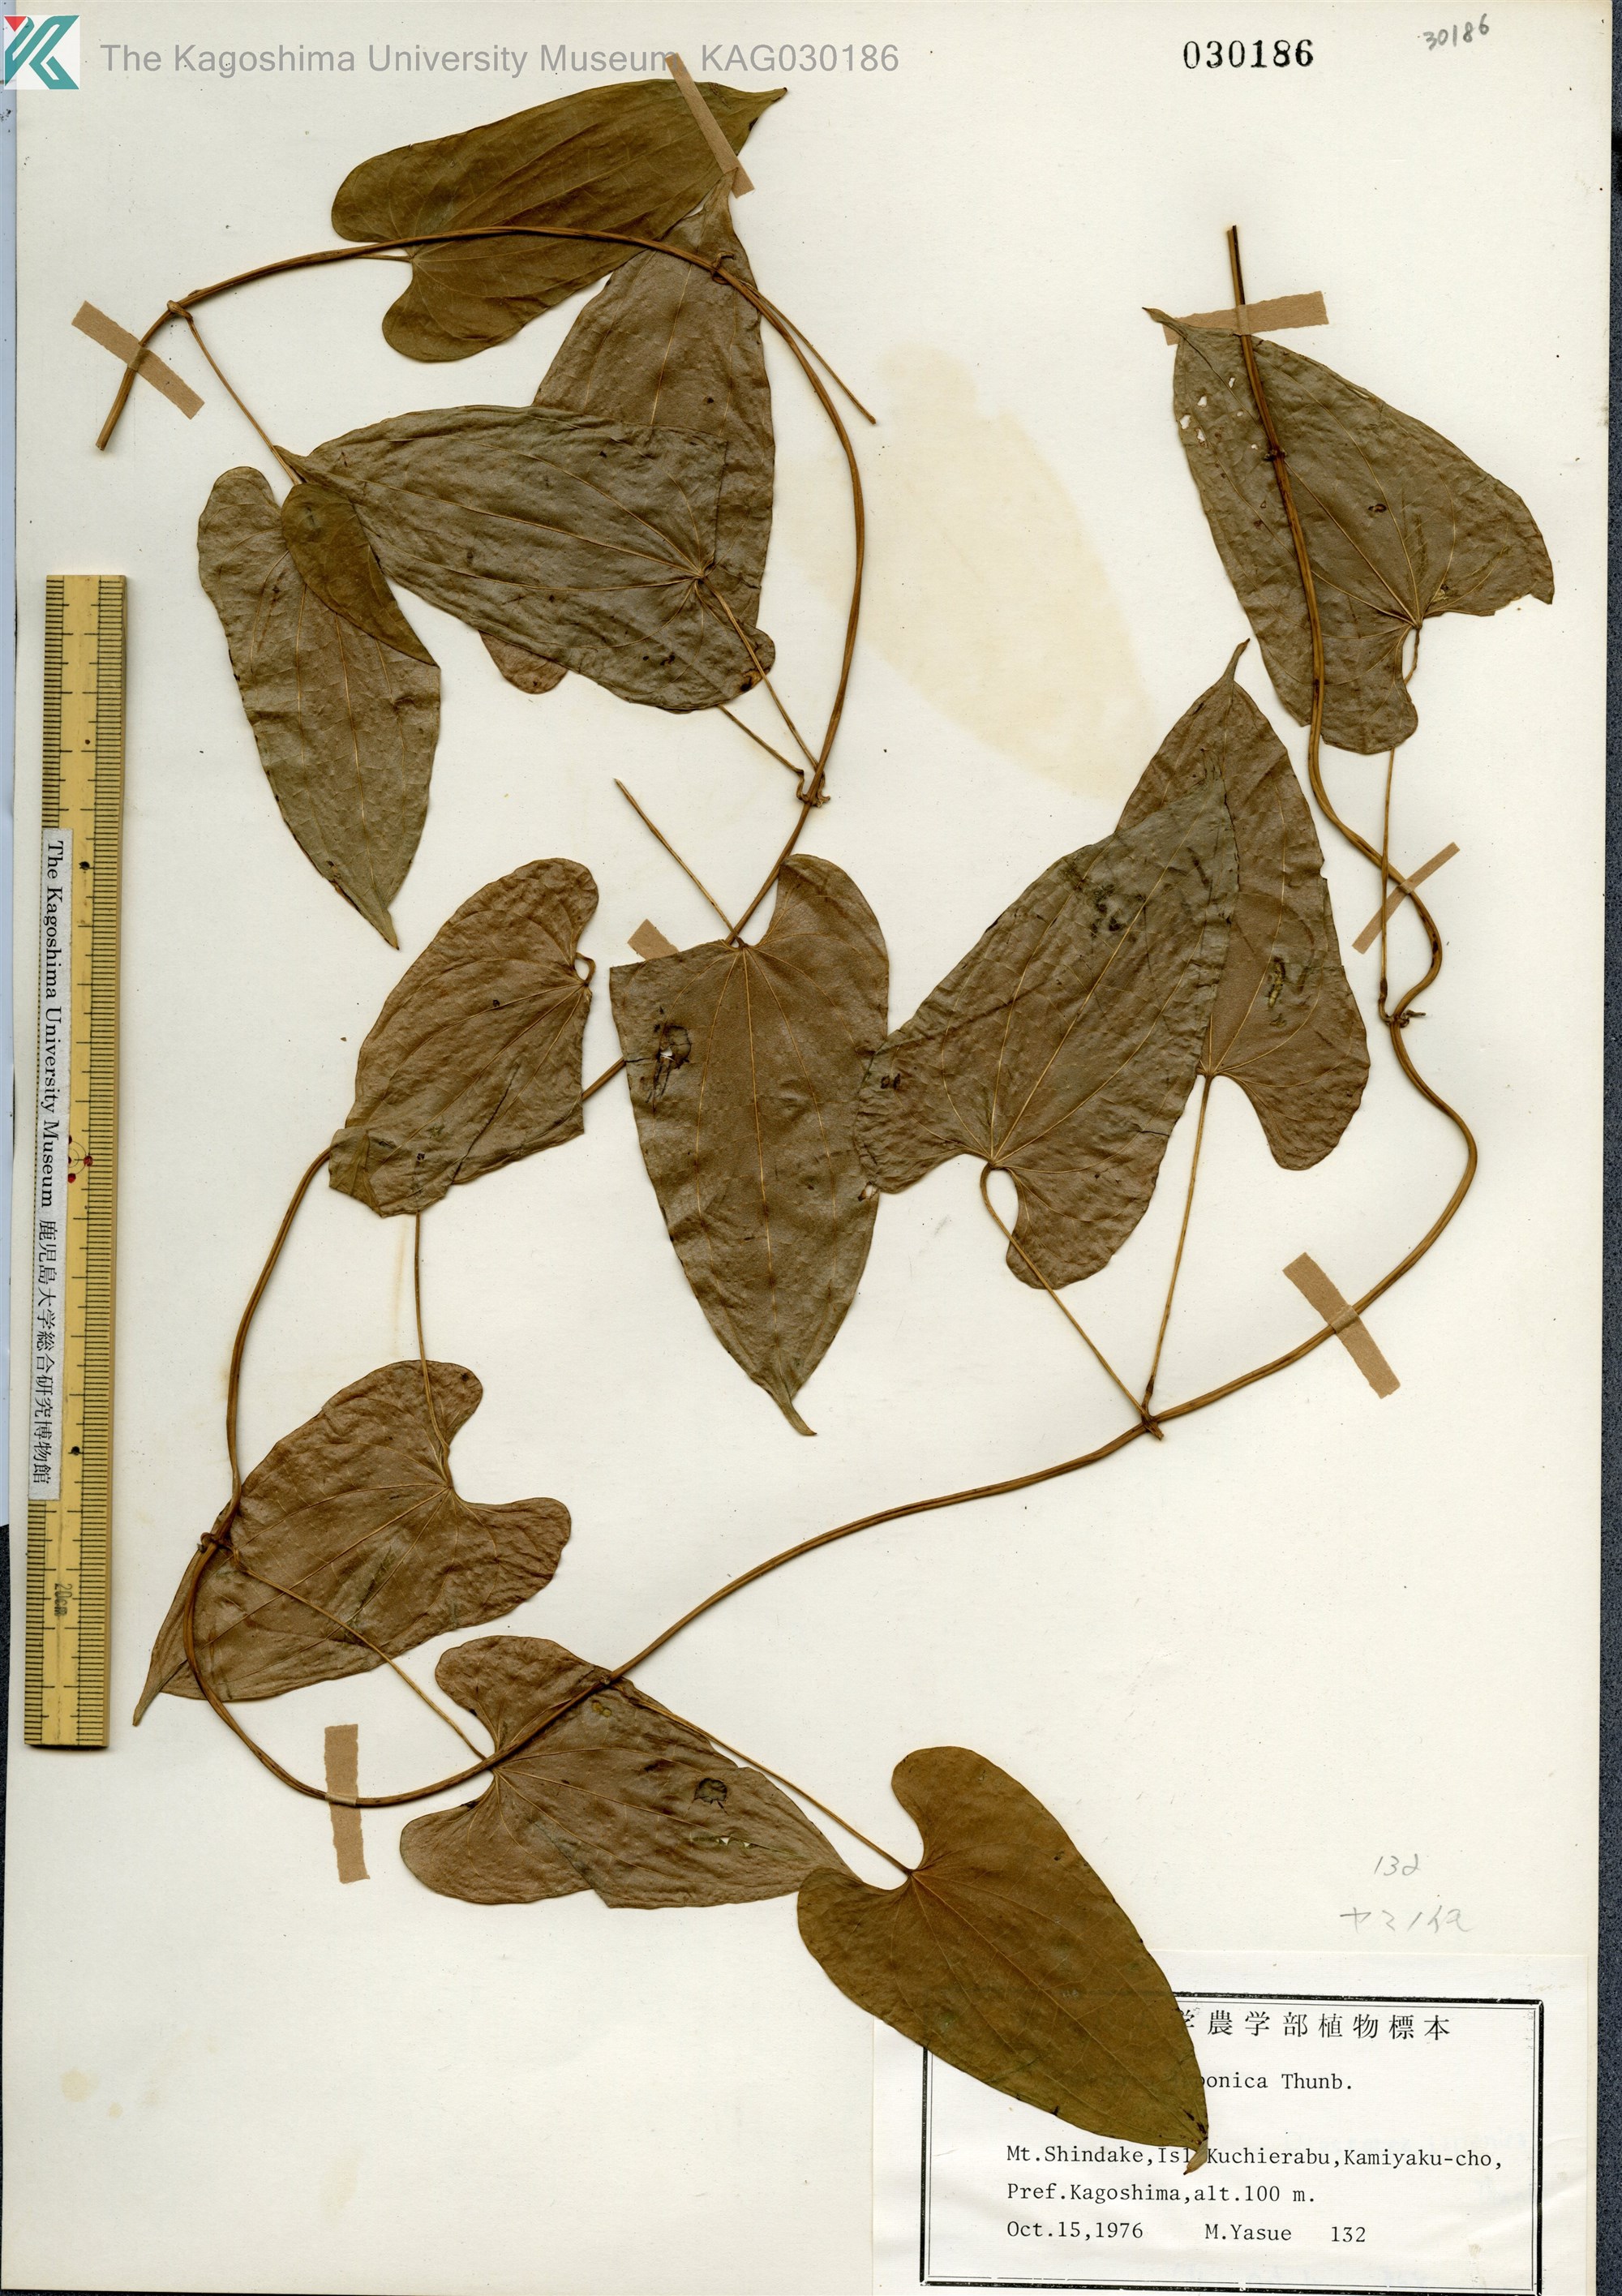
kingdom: Plantae
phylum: Tracheophyta
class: Liliopsida
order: Dioscoreales
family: Dioscoreaceae
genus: Dioscorea
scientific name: Dioscorea japonica
